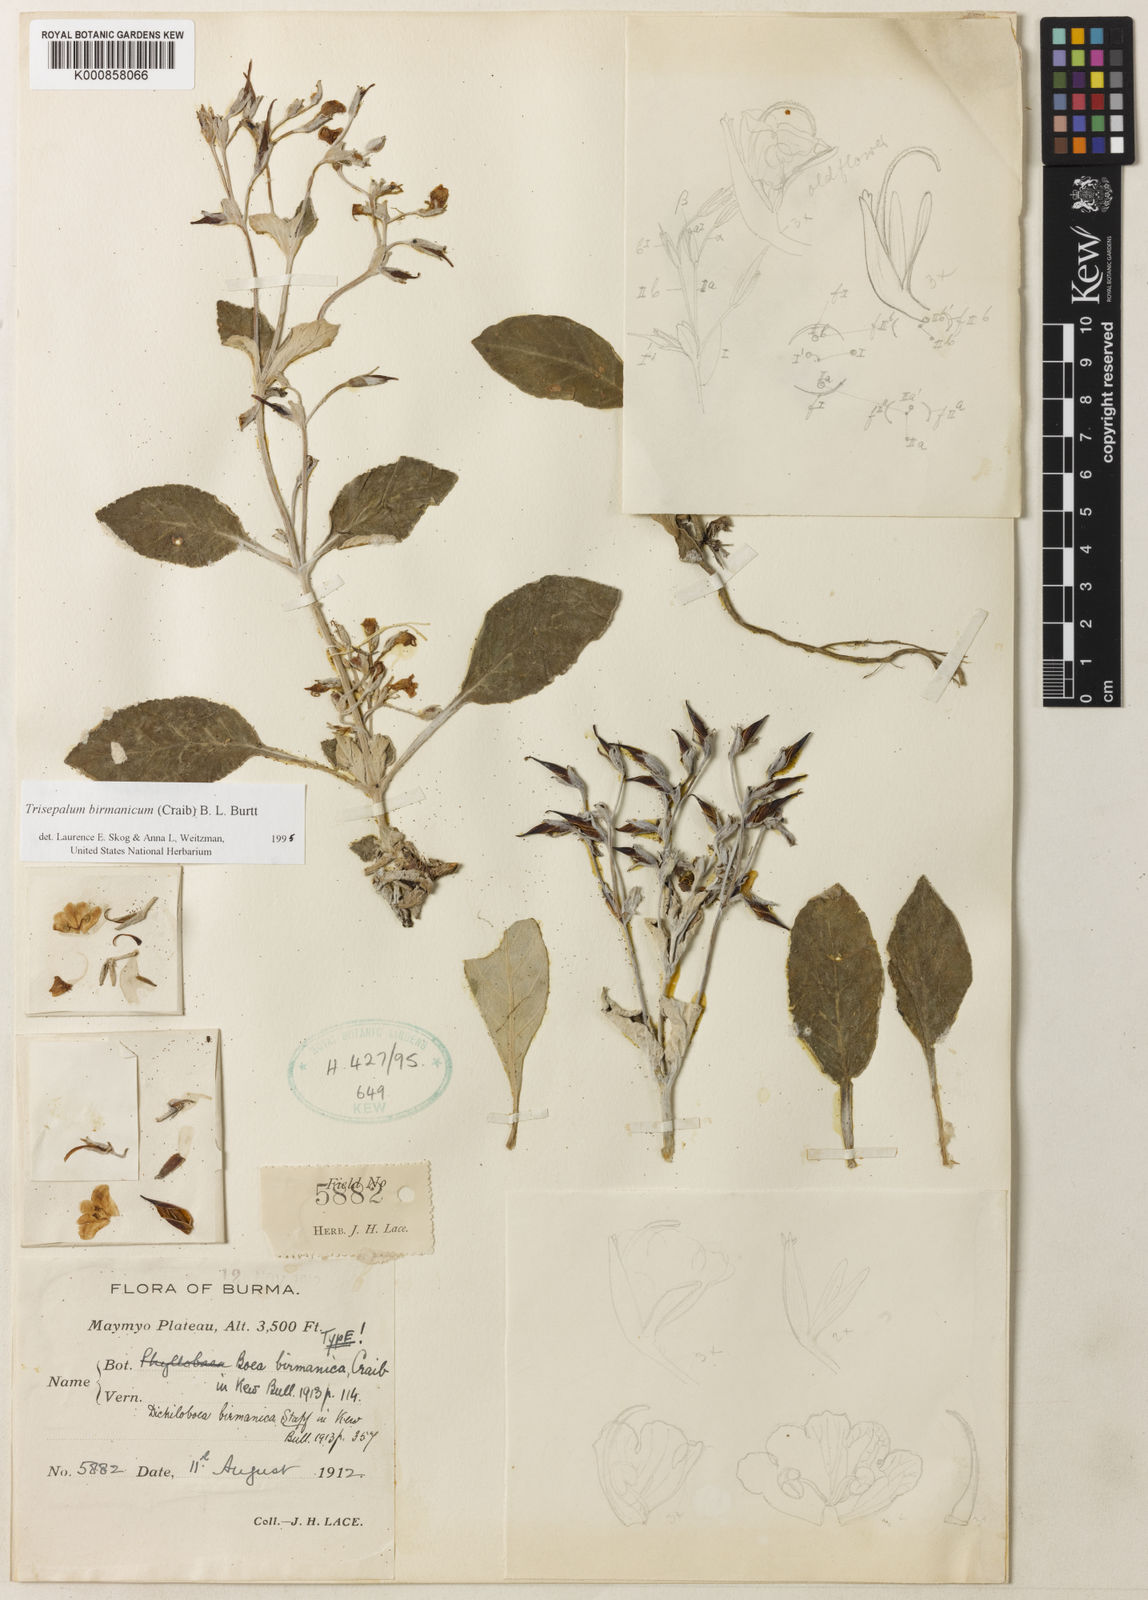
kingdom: Plantae
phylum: Tracheophyta
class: Magnoliopsida
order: Lamiales
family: Gesneriaceae
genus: Paraboea
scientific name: Paraboea birmanica
